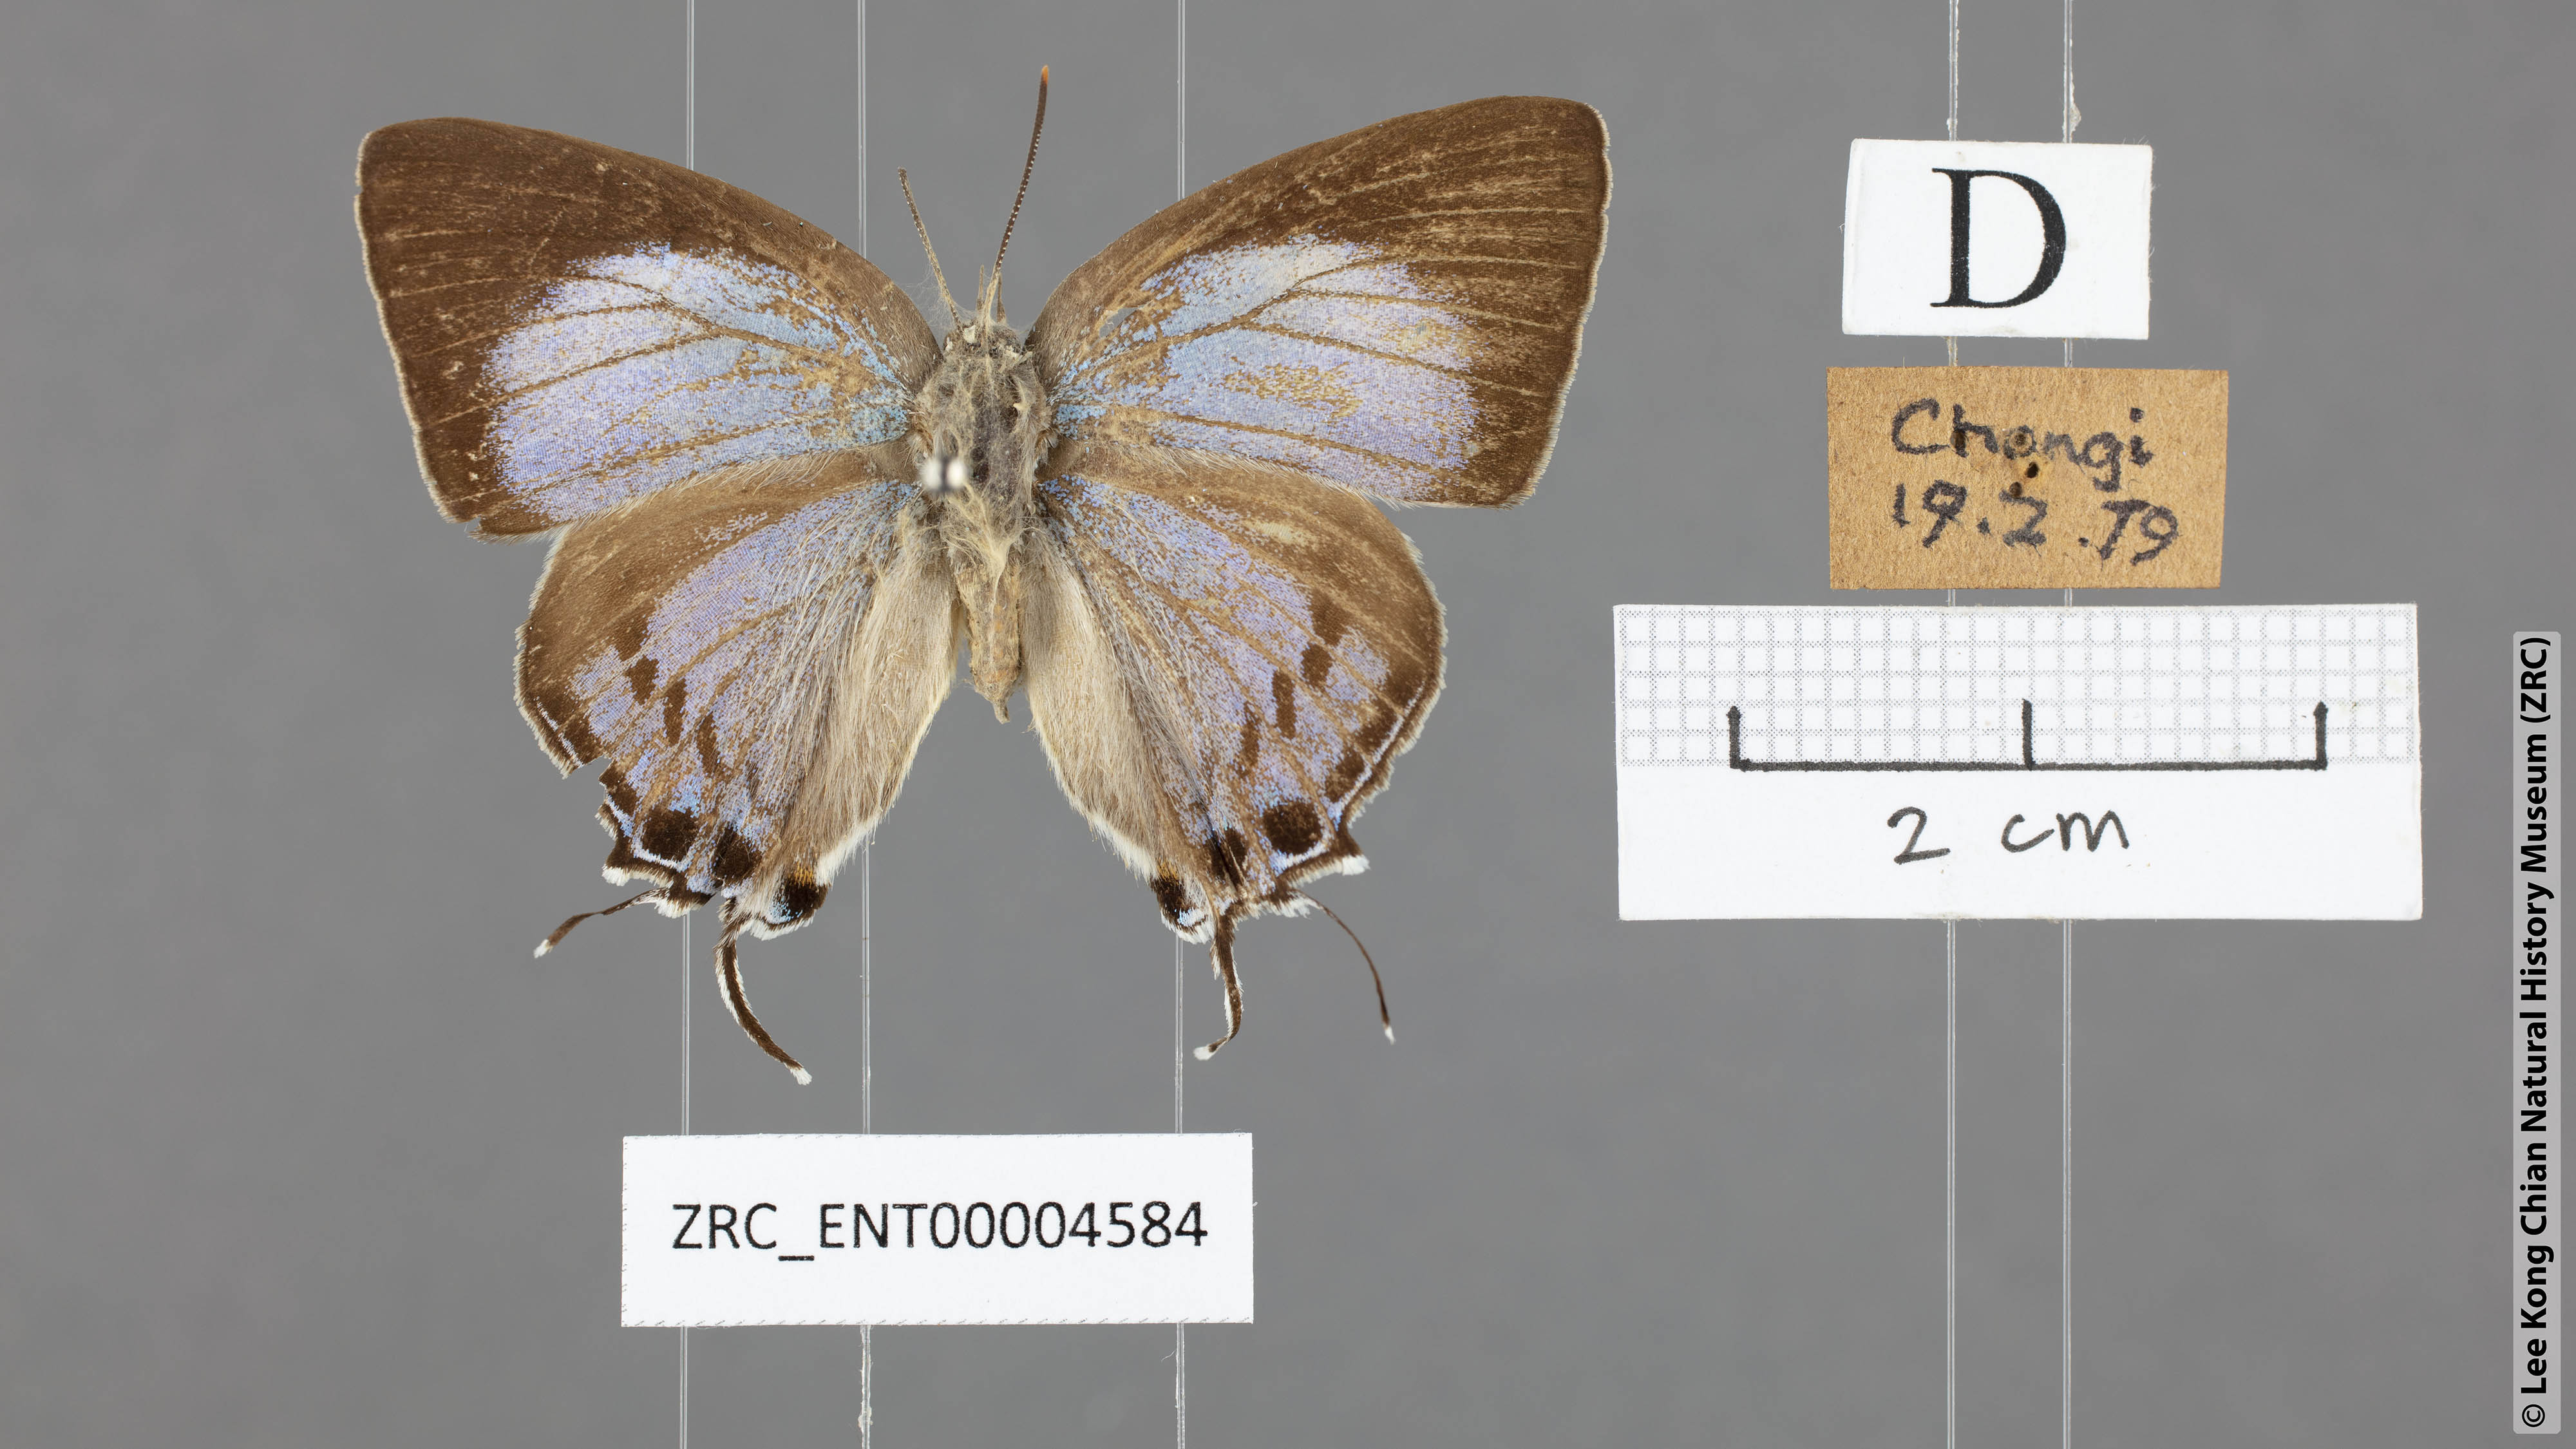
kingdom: Animalia
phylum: Arthropoda
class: Insecta
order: Lepidoptera
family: Lycaenidae
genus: Tajuria
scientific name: Tajuria cippus
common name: Peacock royal
